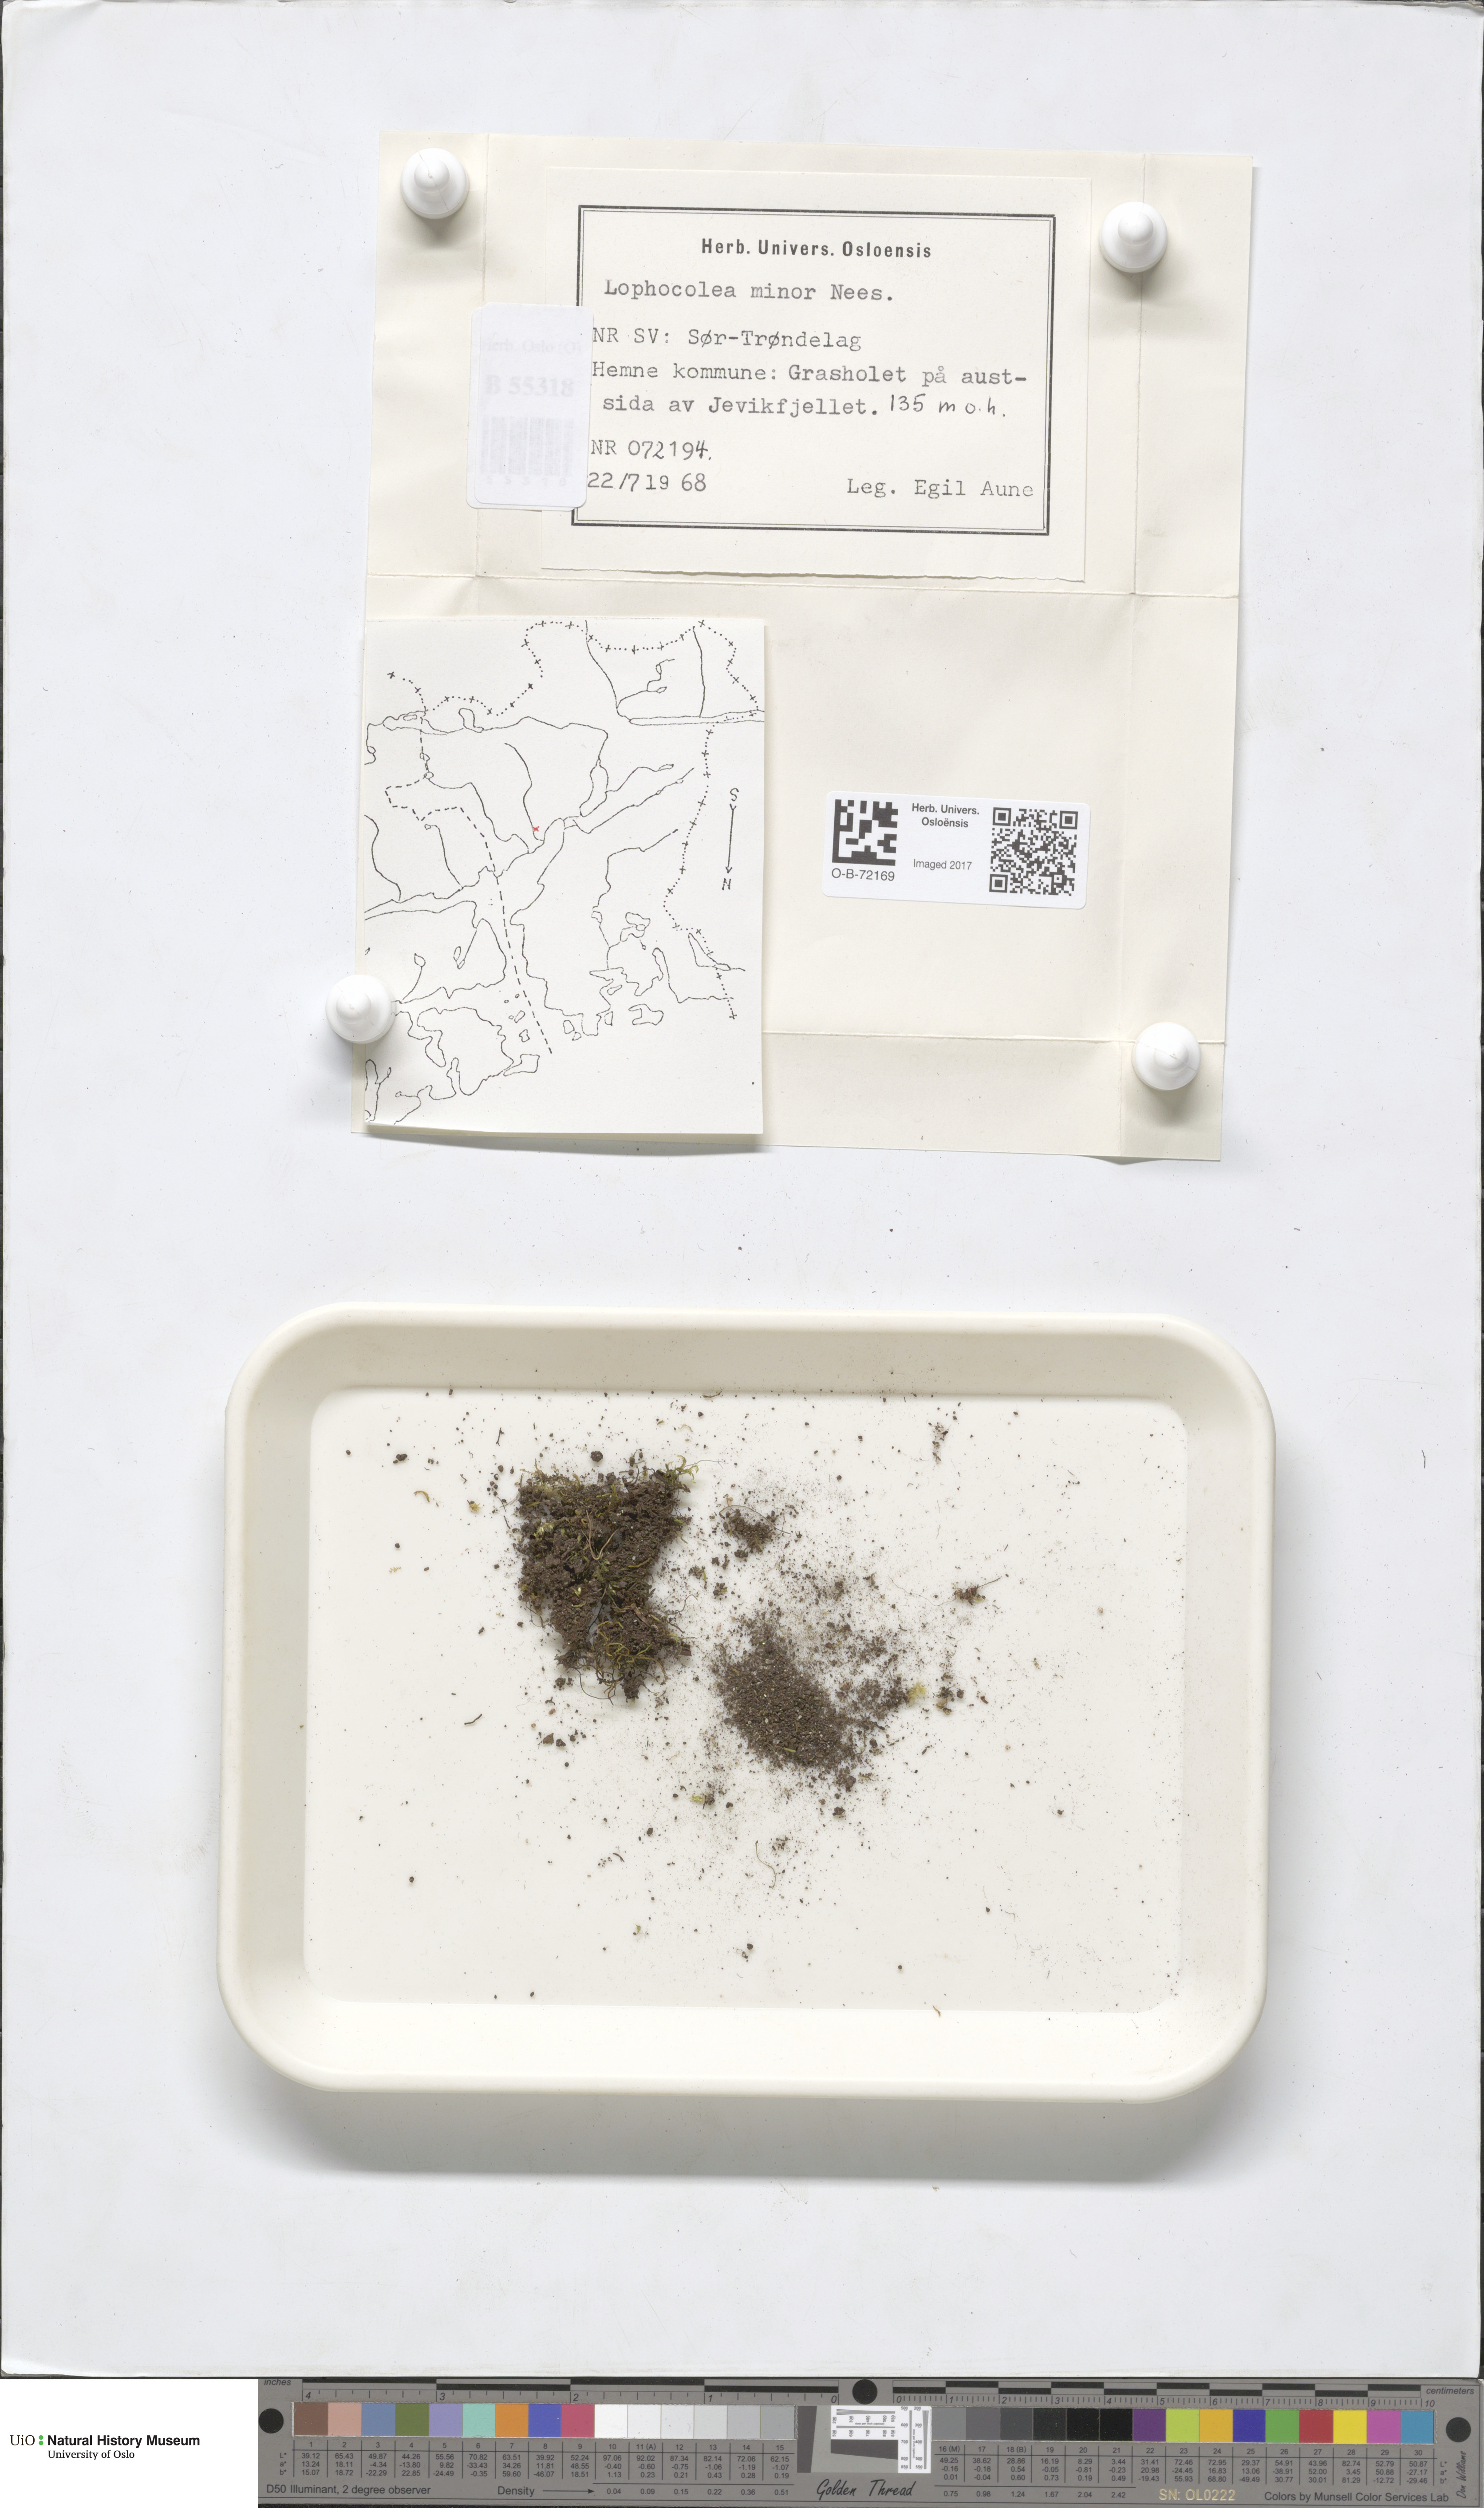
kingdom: Plantae
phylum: Marchantiophyta
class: Jungermanniopsida
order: Jungermanniales
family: Lophocoleaceae
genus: Lophocolea
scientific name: Lophocolea minor
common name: Lesser crestwort
